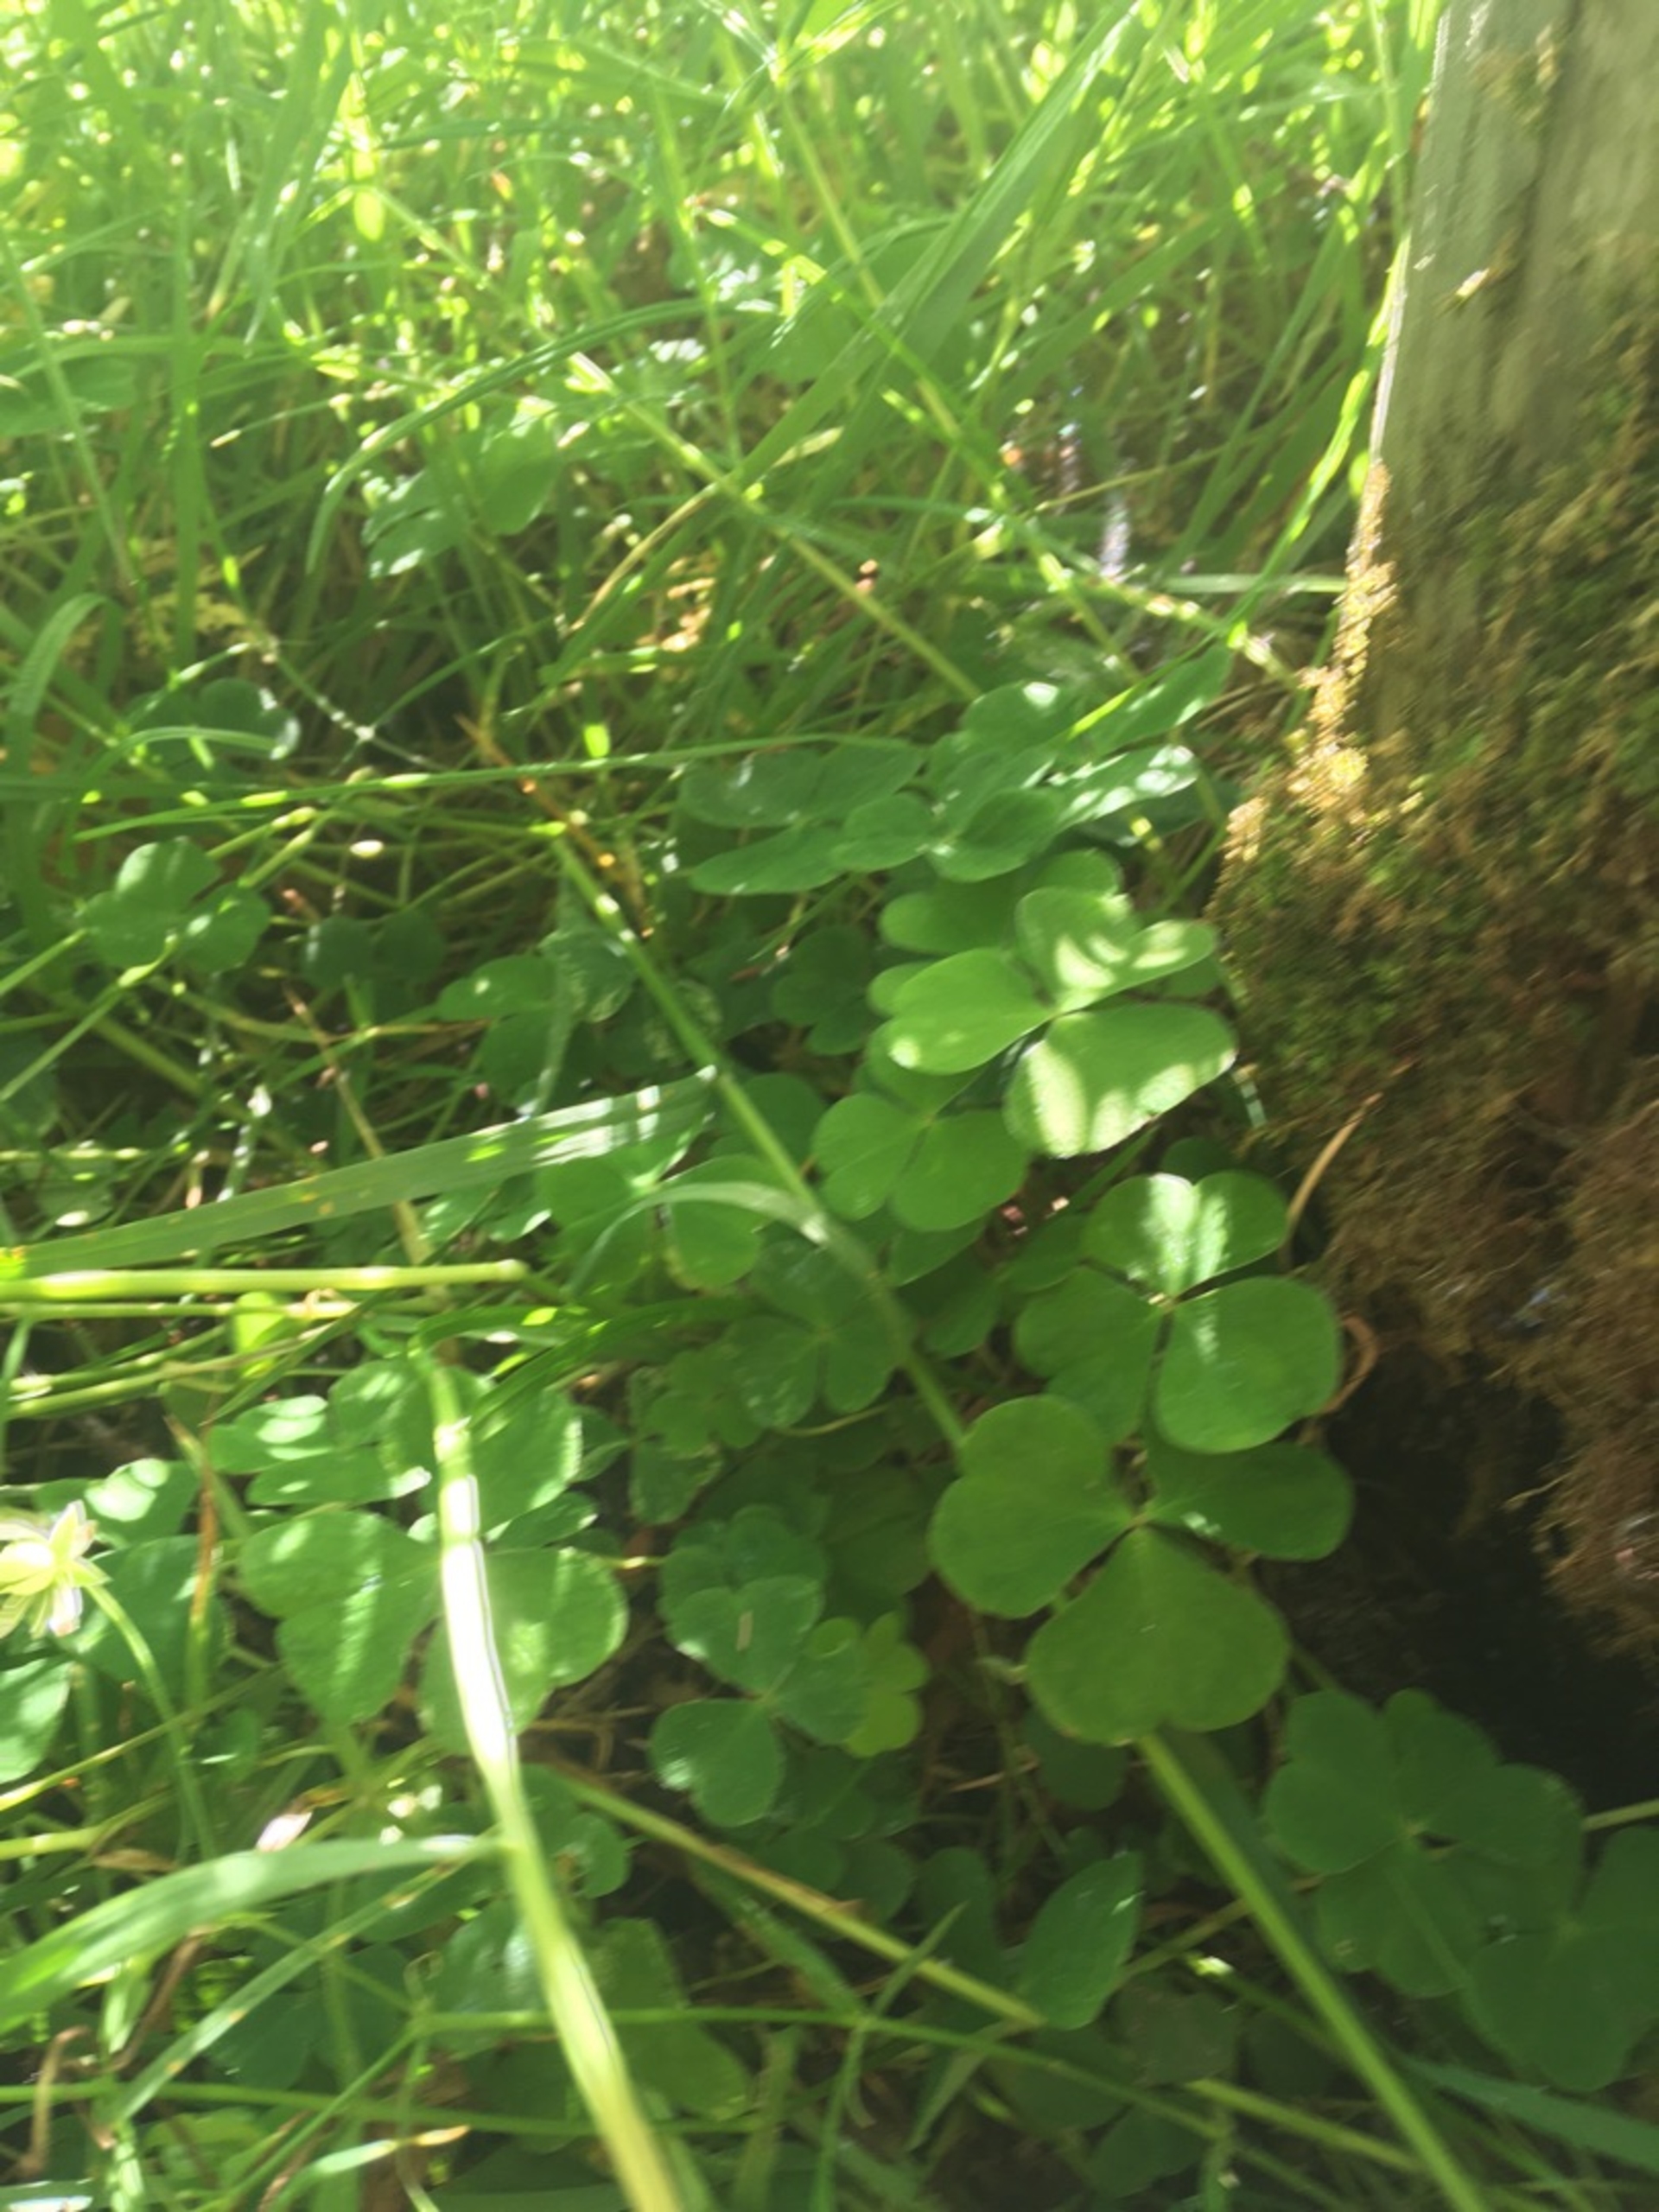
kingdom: Plantae
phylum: Tracheophyta
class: Magnoliopsida
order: Oxalidales
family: Oxalidaceae
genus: Oxalis
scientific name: Oxalis acetosella
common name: Skovsyre
